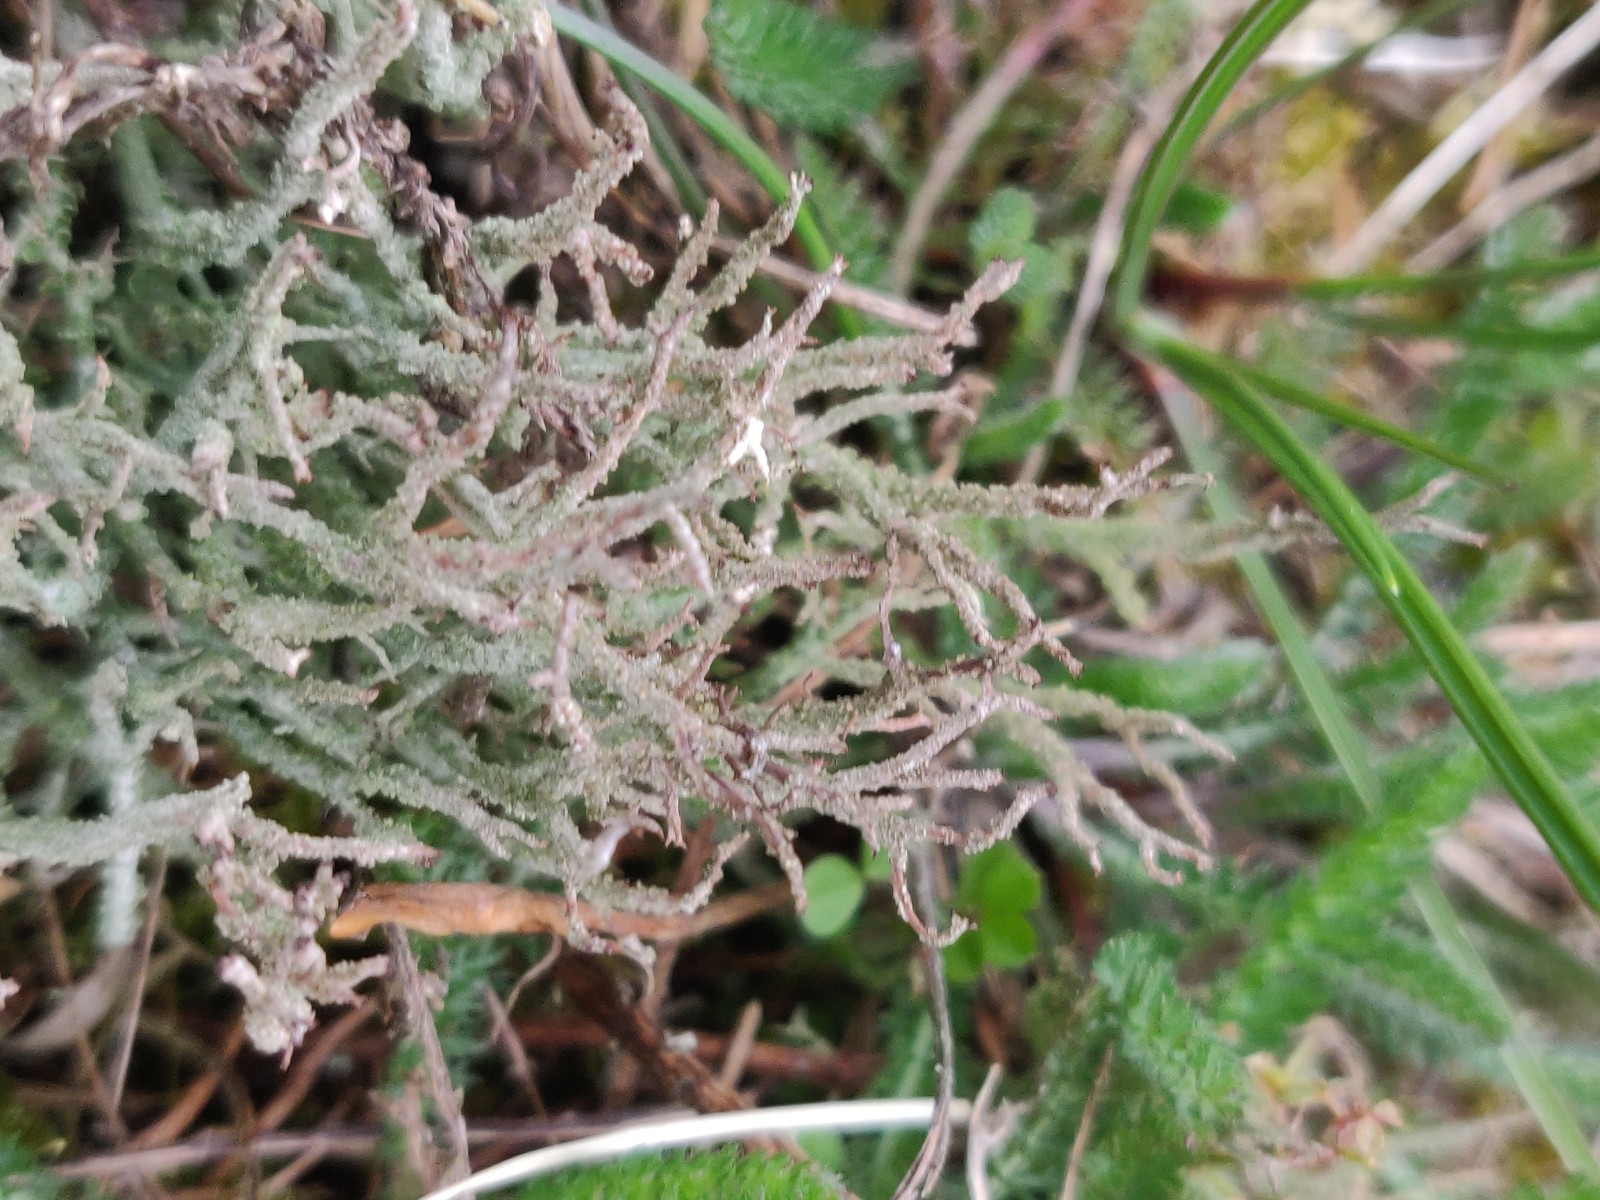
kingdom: Fungi
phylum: Ascomycota
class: Lecanoromycetes
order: Lecanorales
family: Cladoniaceae
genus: Cladonia
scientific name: Cladonia scabriuscula
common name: ru bægerlav
